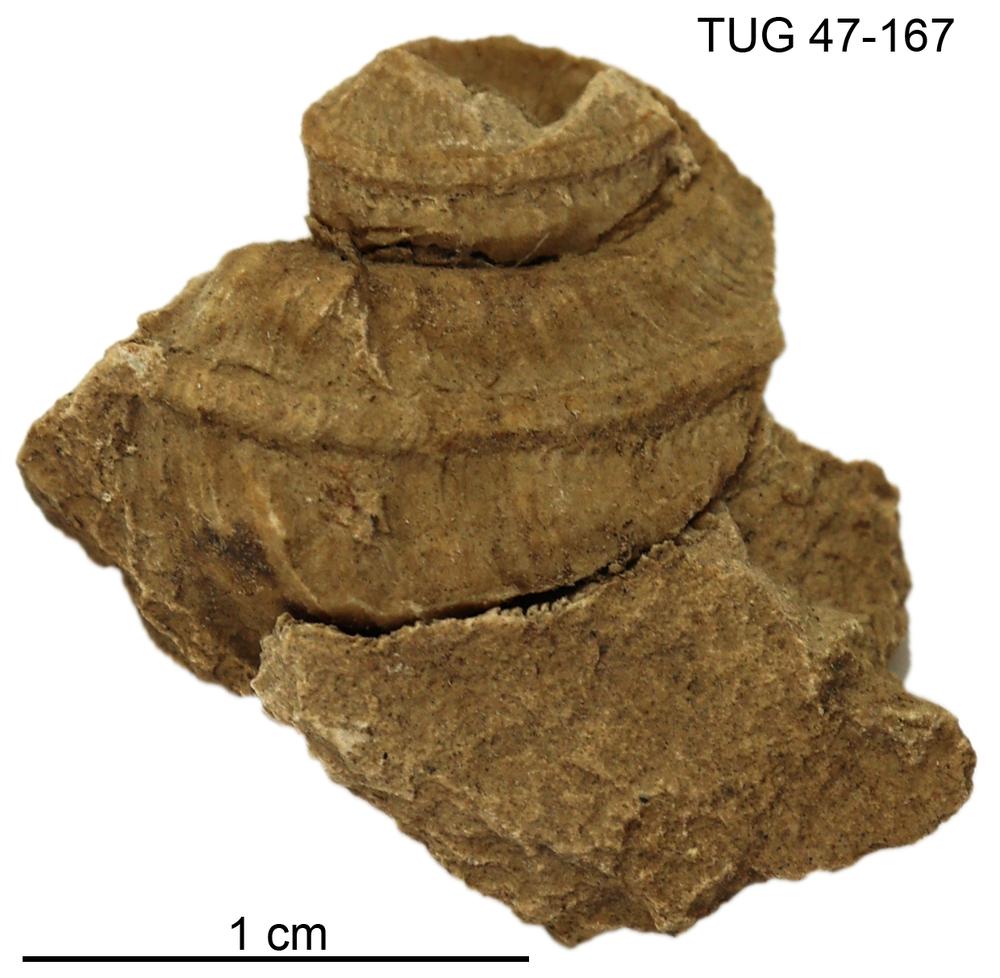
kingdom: Animalia
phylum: Mollusca
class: Gastropoda
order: Pleurotomariida
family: Phanerotrematidae
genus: Brachytomaria
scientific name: Brachytomaria Pleurotomaria baltica
